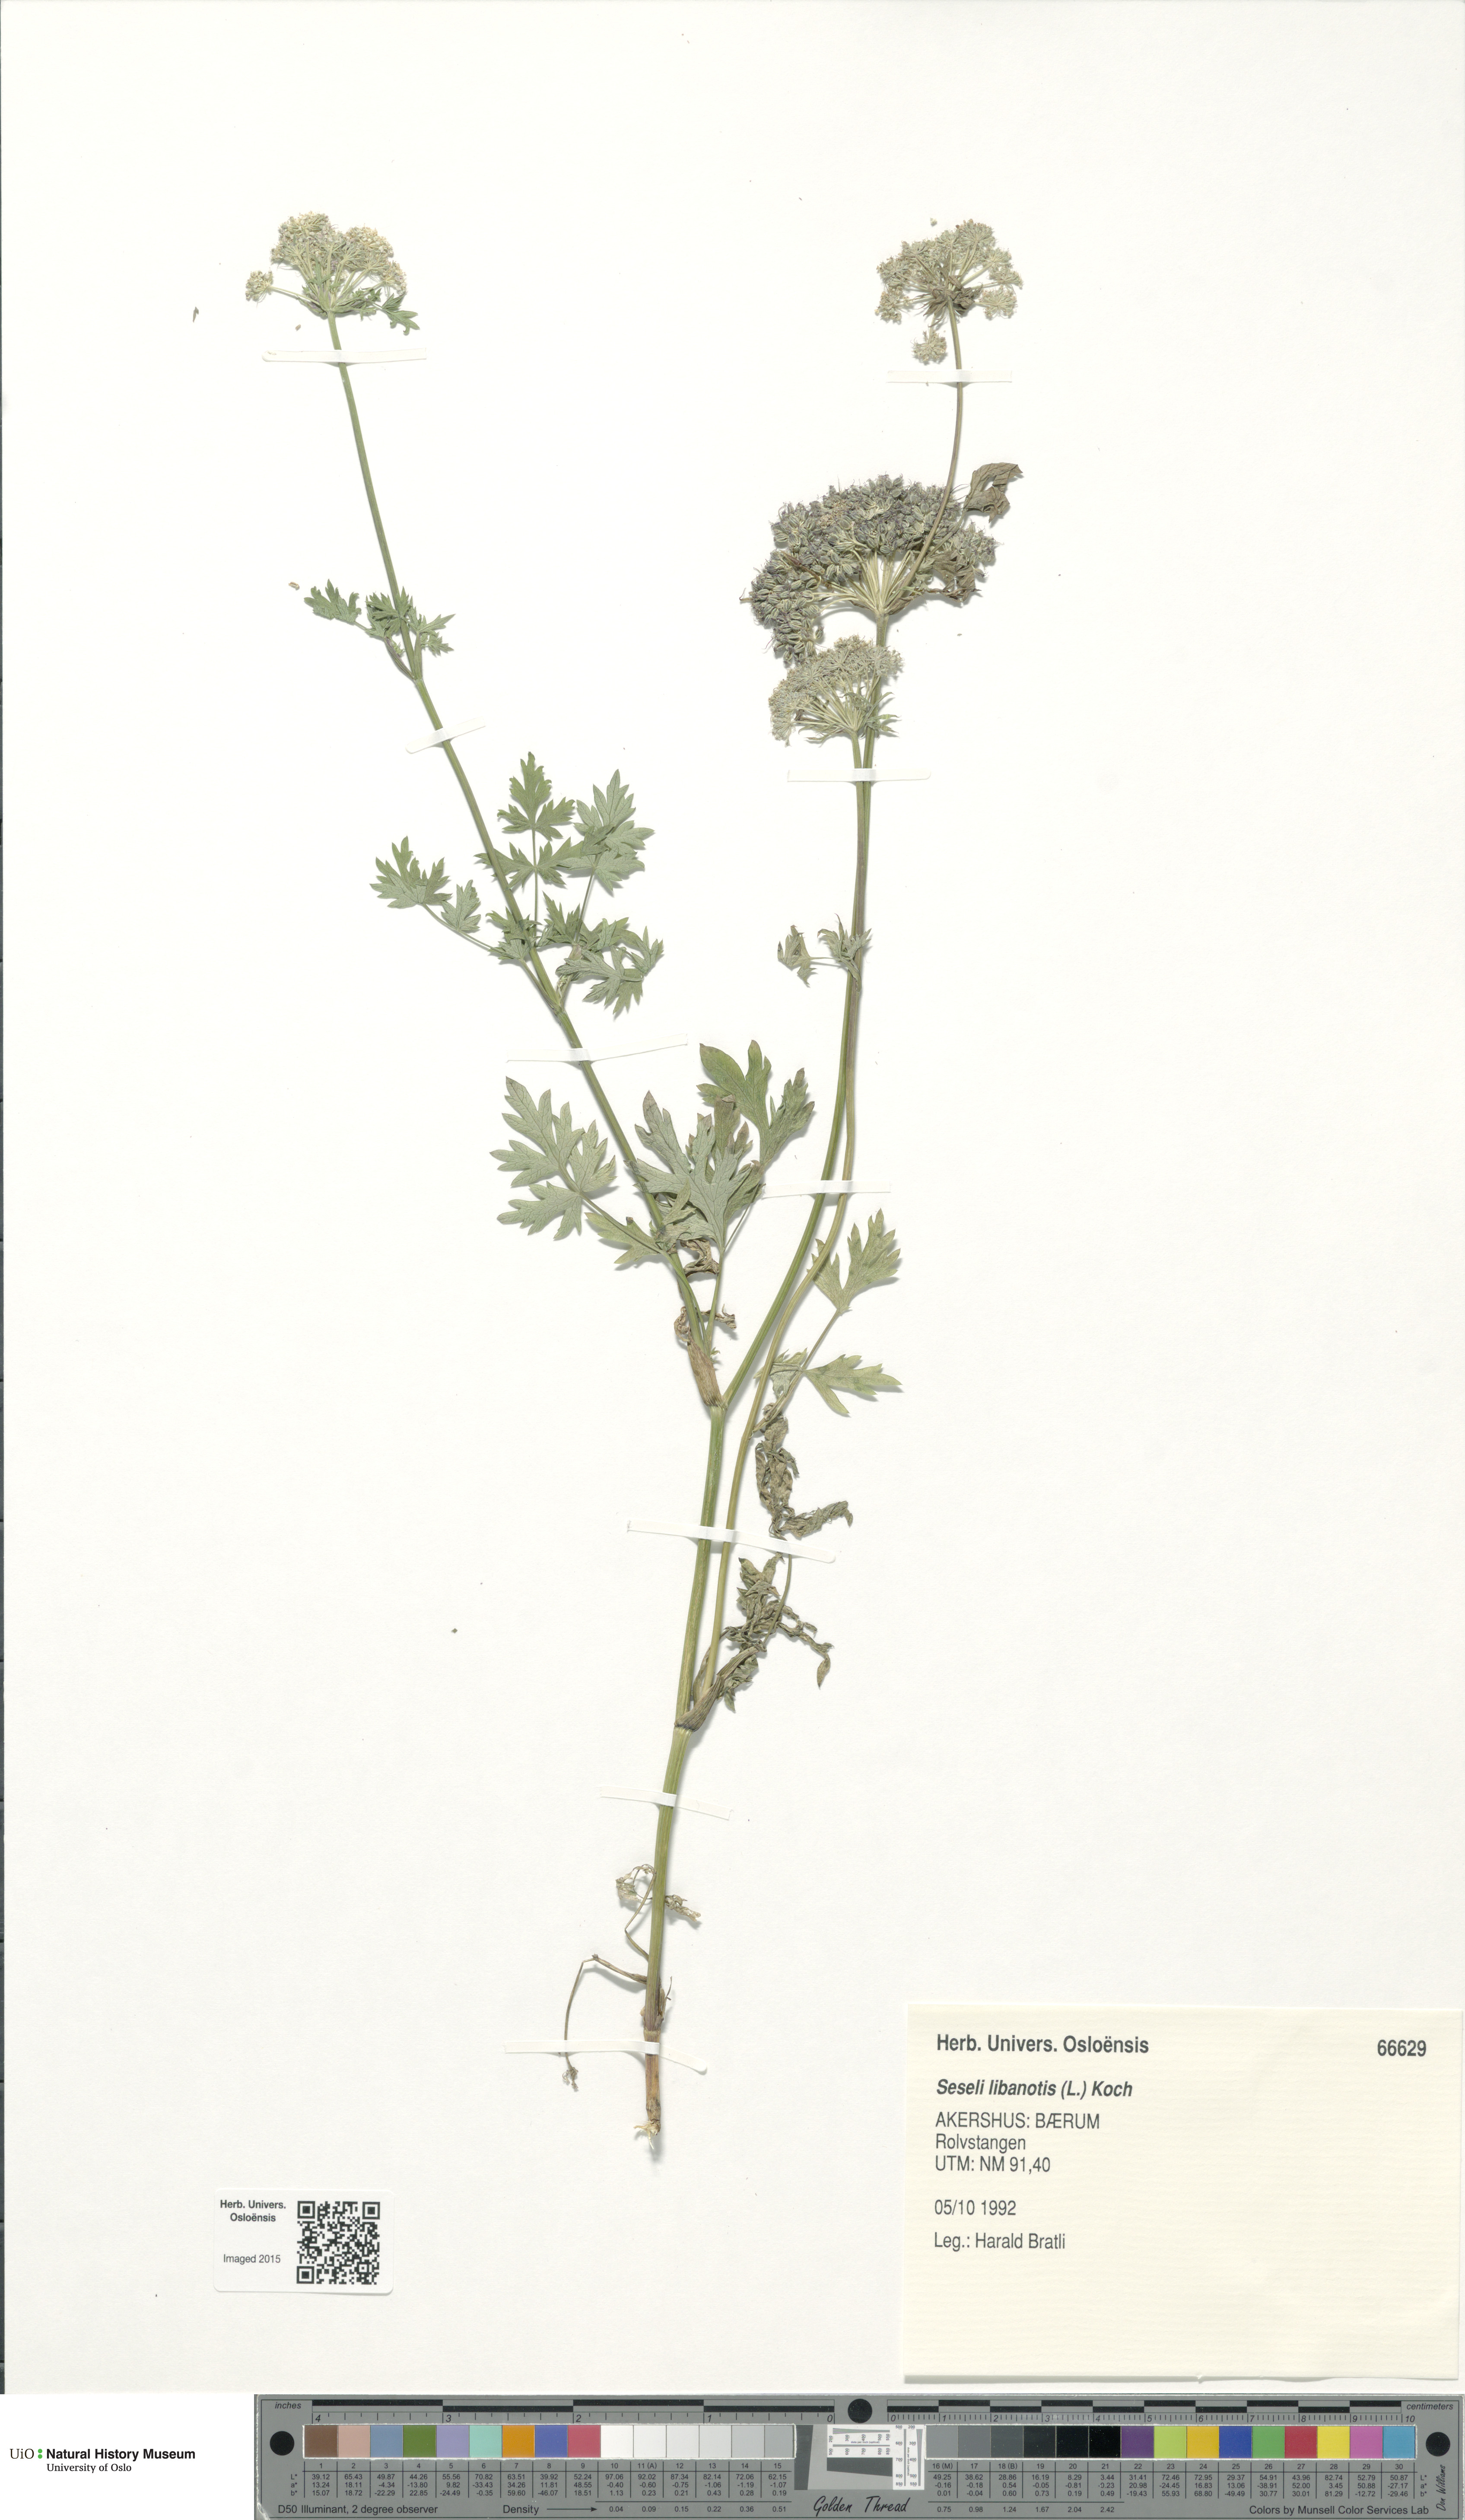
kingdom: Plantae
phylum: Tracheophyta
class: Magnoliopsida
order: Apiales
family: Apiaceae
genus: Seseli
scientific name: Seseli libanotis
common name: Mooncarrot
